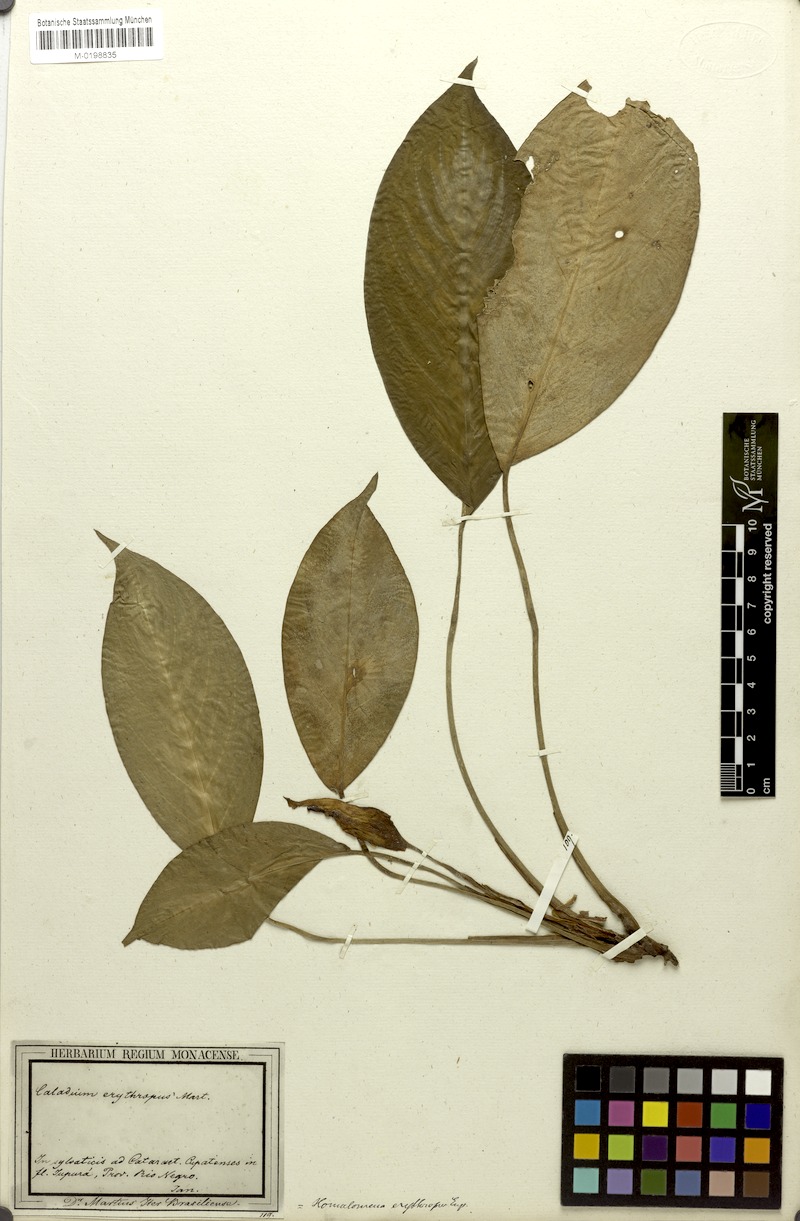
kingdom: Plantae
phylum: Tracheophyta
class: Liliopsida
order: Alismatales
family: Araceae
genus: Adelonema
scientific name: Adelonema erythropus
